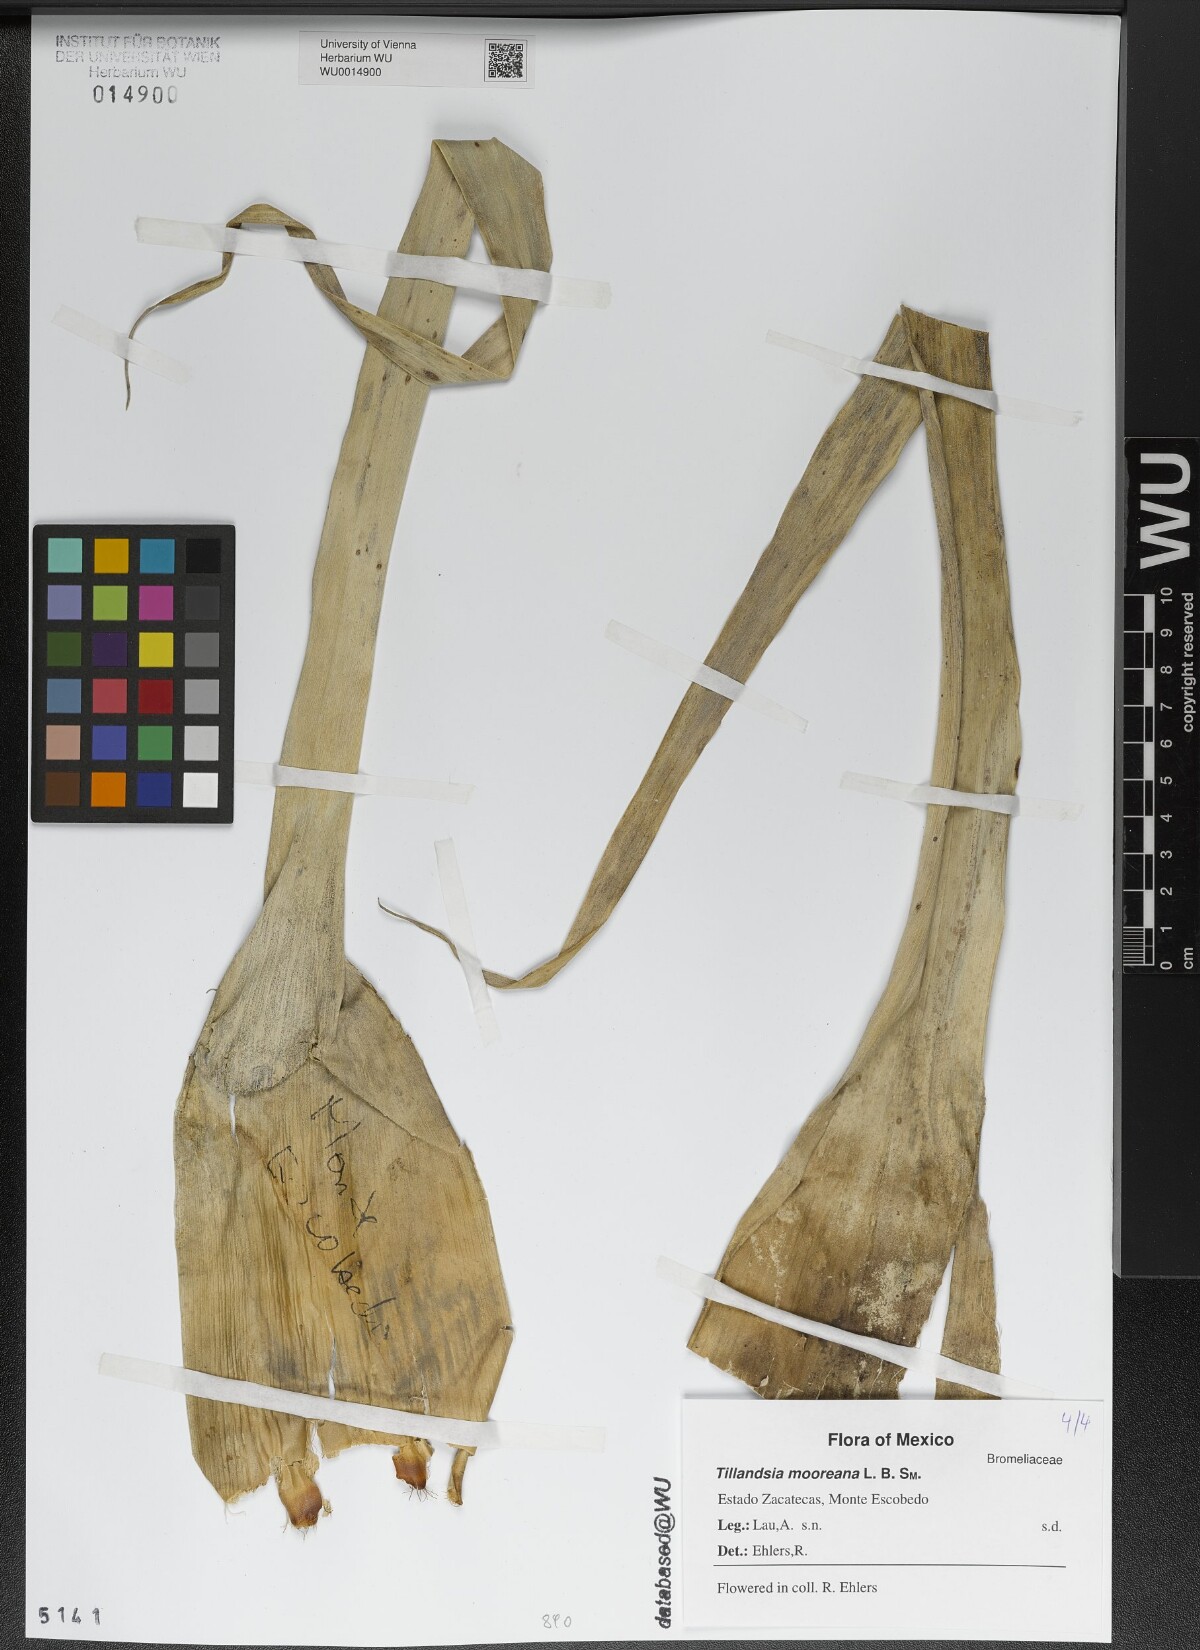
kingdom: Plantae
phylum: Tracheophyta
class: Liliopsida
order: Poales
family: Bromeliaceae
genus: Tillandsia
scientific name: Tillandsia mooreana
